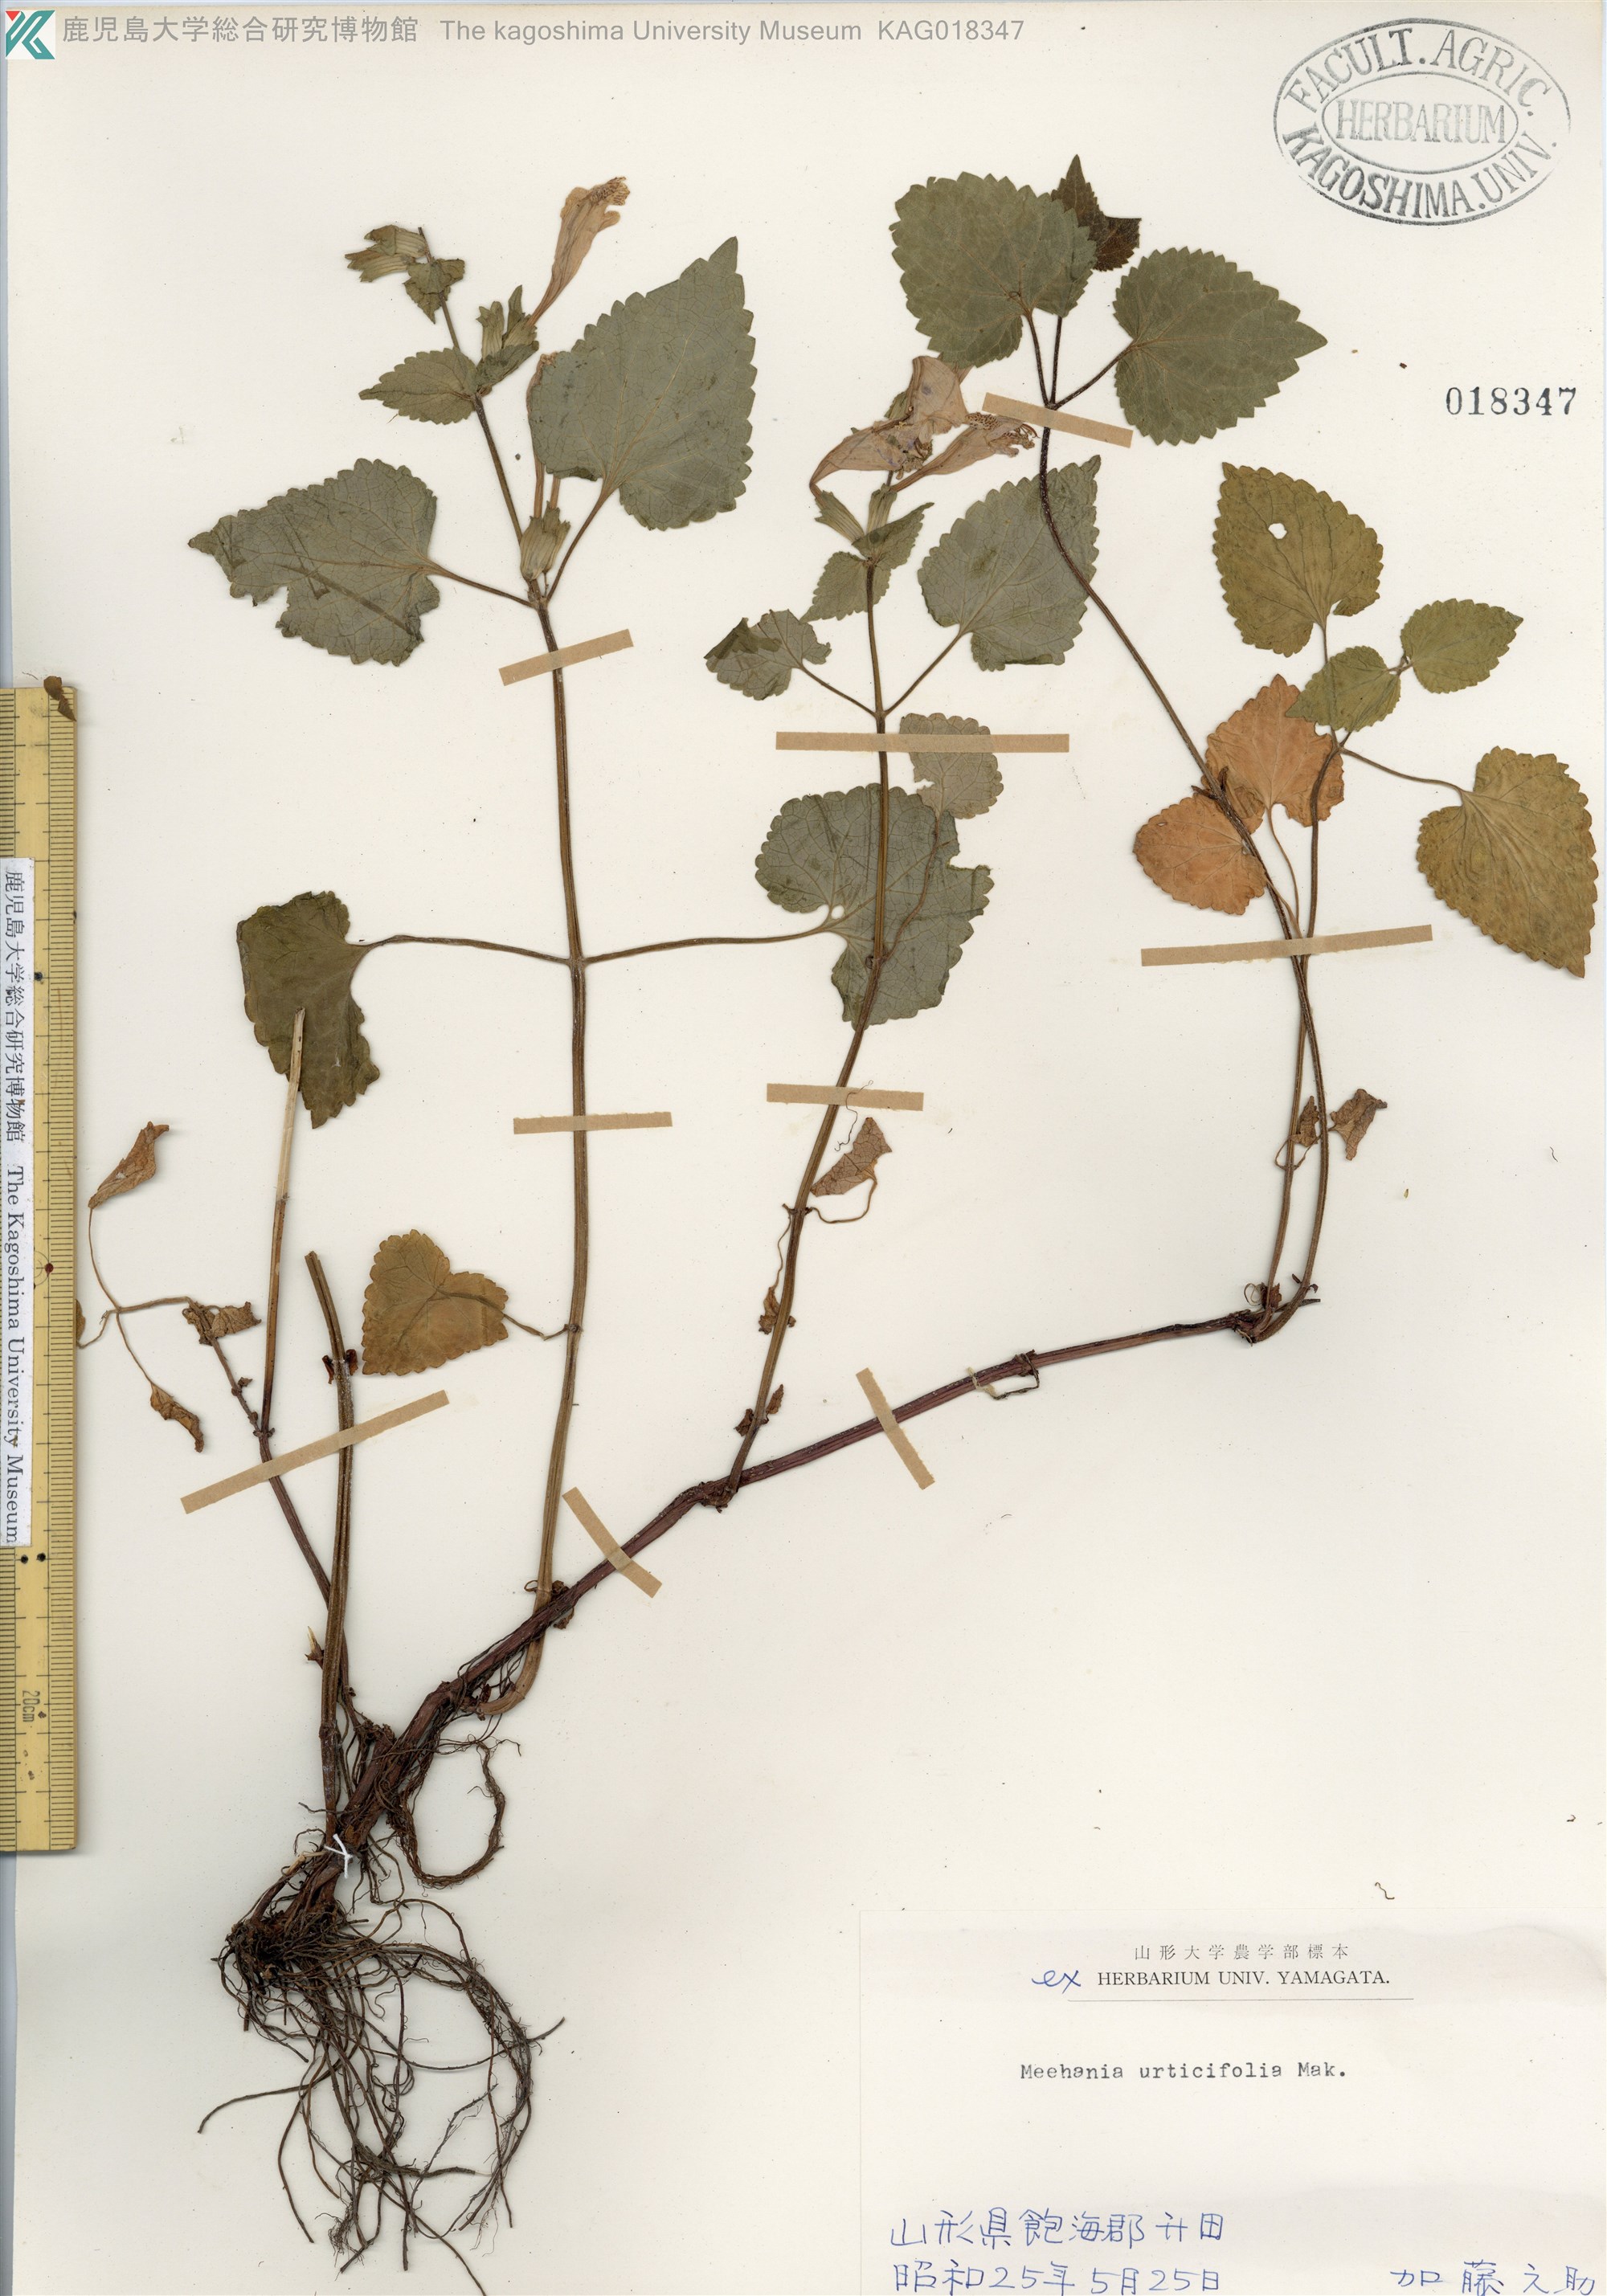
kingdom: Plantae
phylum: Tracheophyta
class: Magnoliopsida
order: Lamiales
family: Lamiaceae
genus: Meehania
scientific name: Meehania urticifolia
